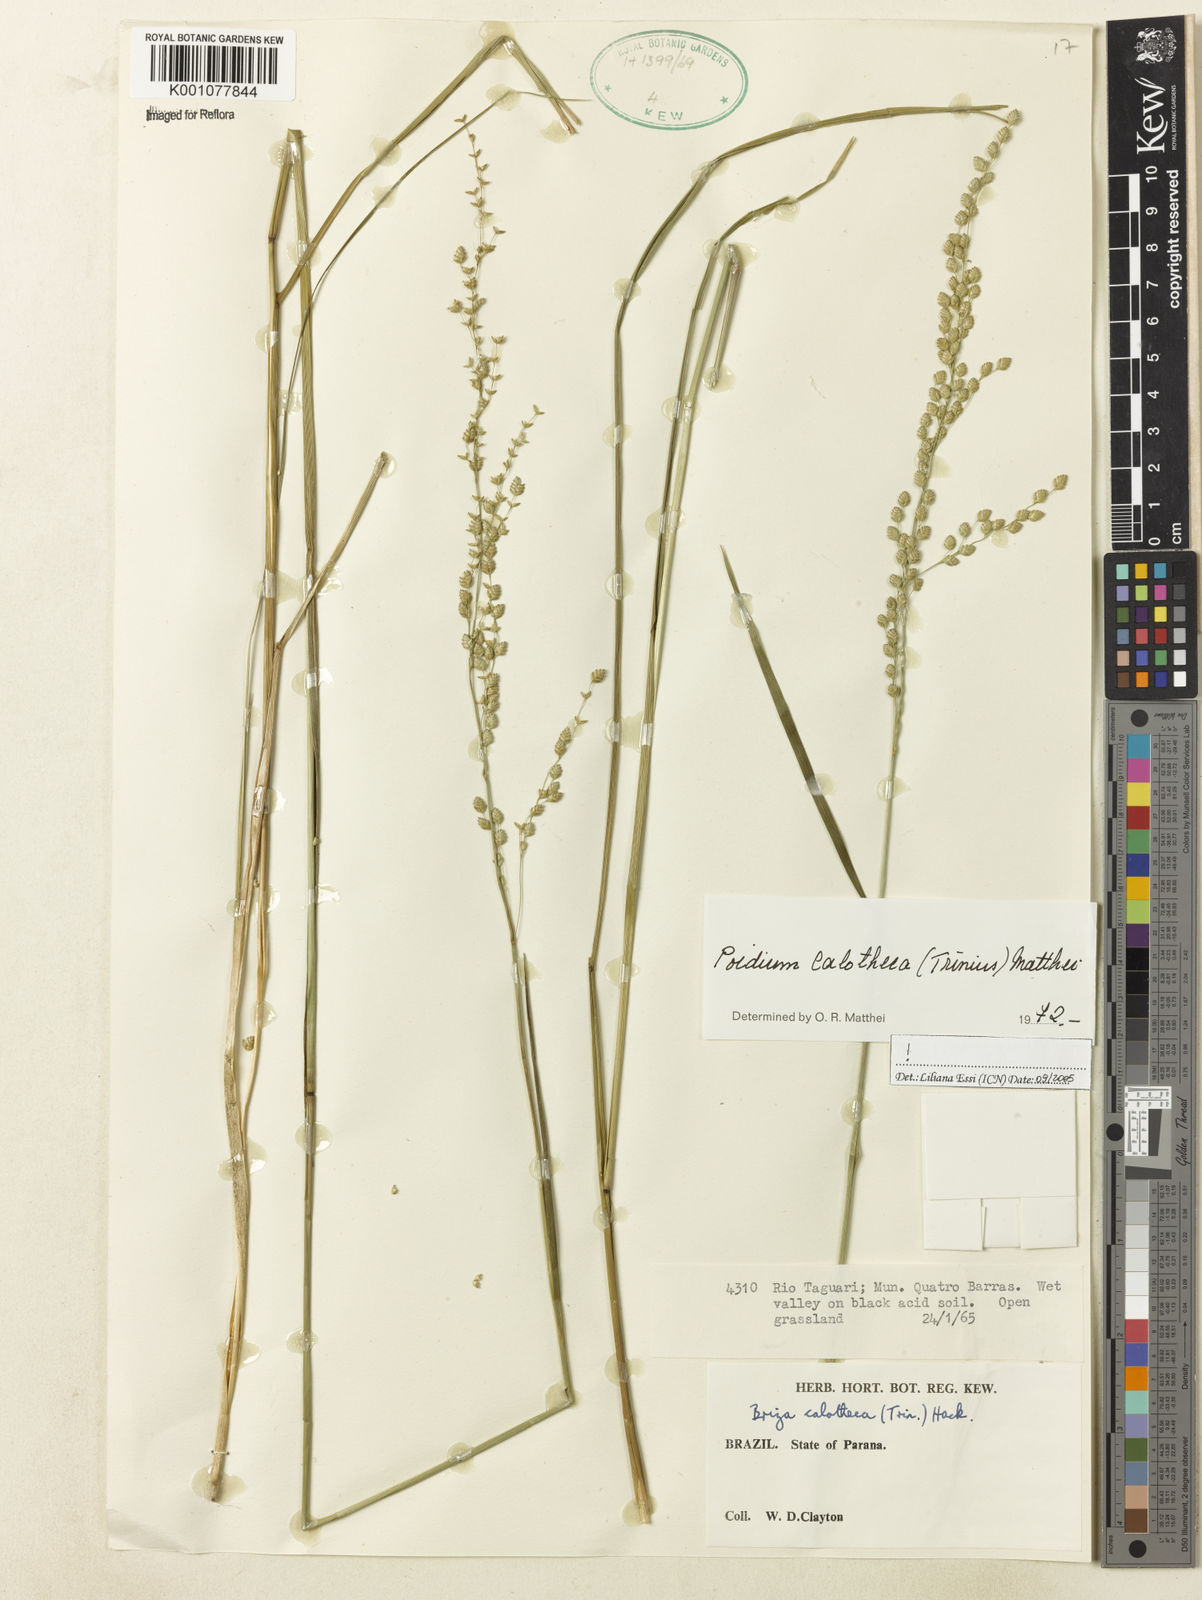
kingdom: Plantae
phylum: Tracheophyta
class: Liliopsida
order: Poales
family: Poaceae
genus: Poidium
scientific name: Poidium calotheca
